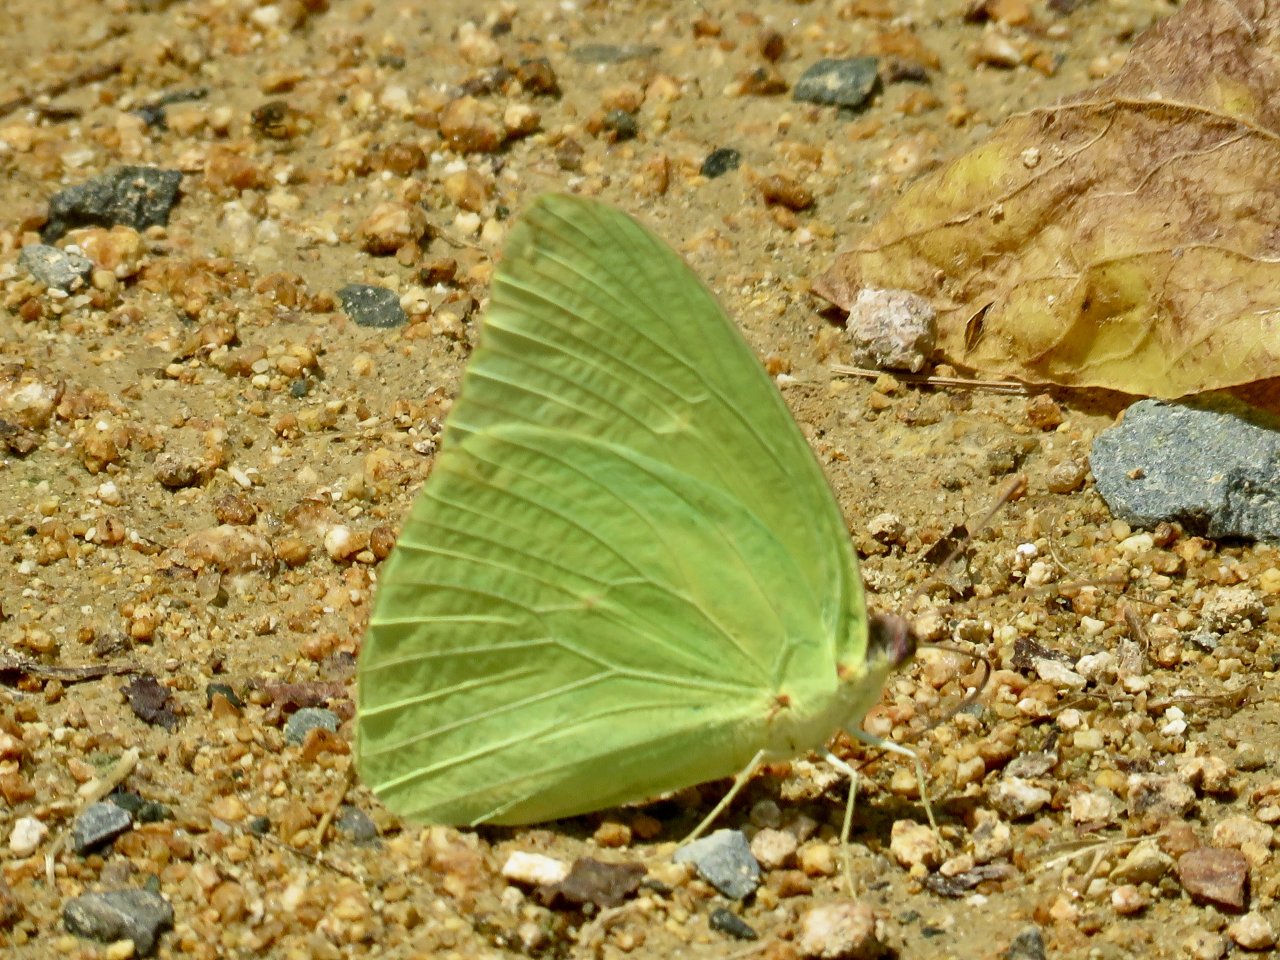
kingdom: Animalia
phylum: Arthropoda
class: Insecta
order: Lepidoptera
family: Pieridae
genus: Phoebis
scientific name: Phoebis sennae
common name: Cloudless Sulphur
